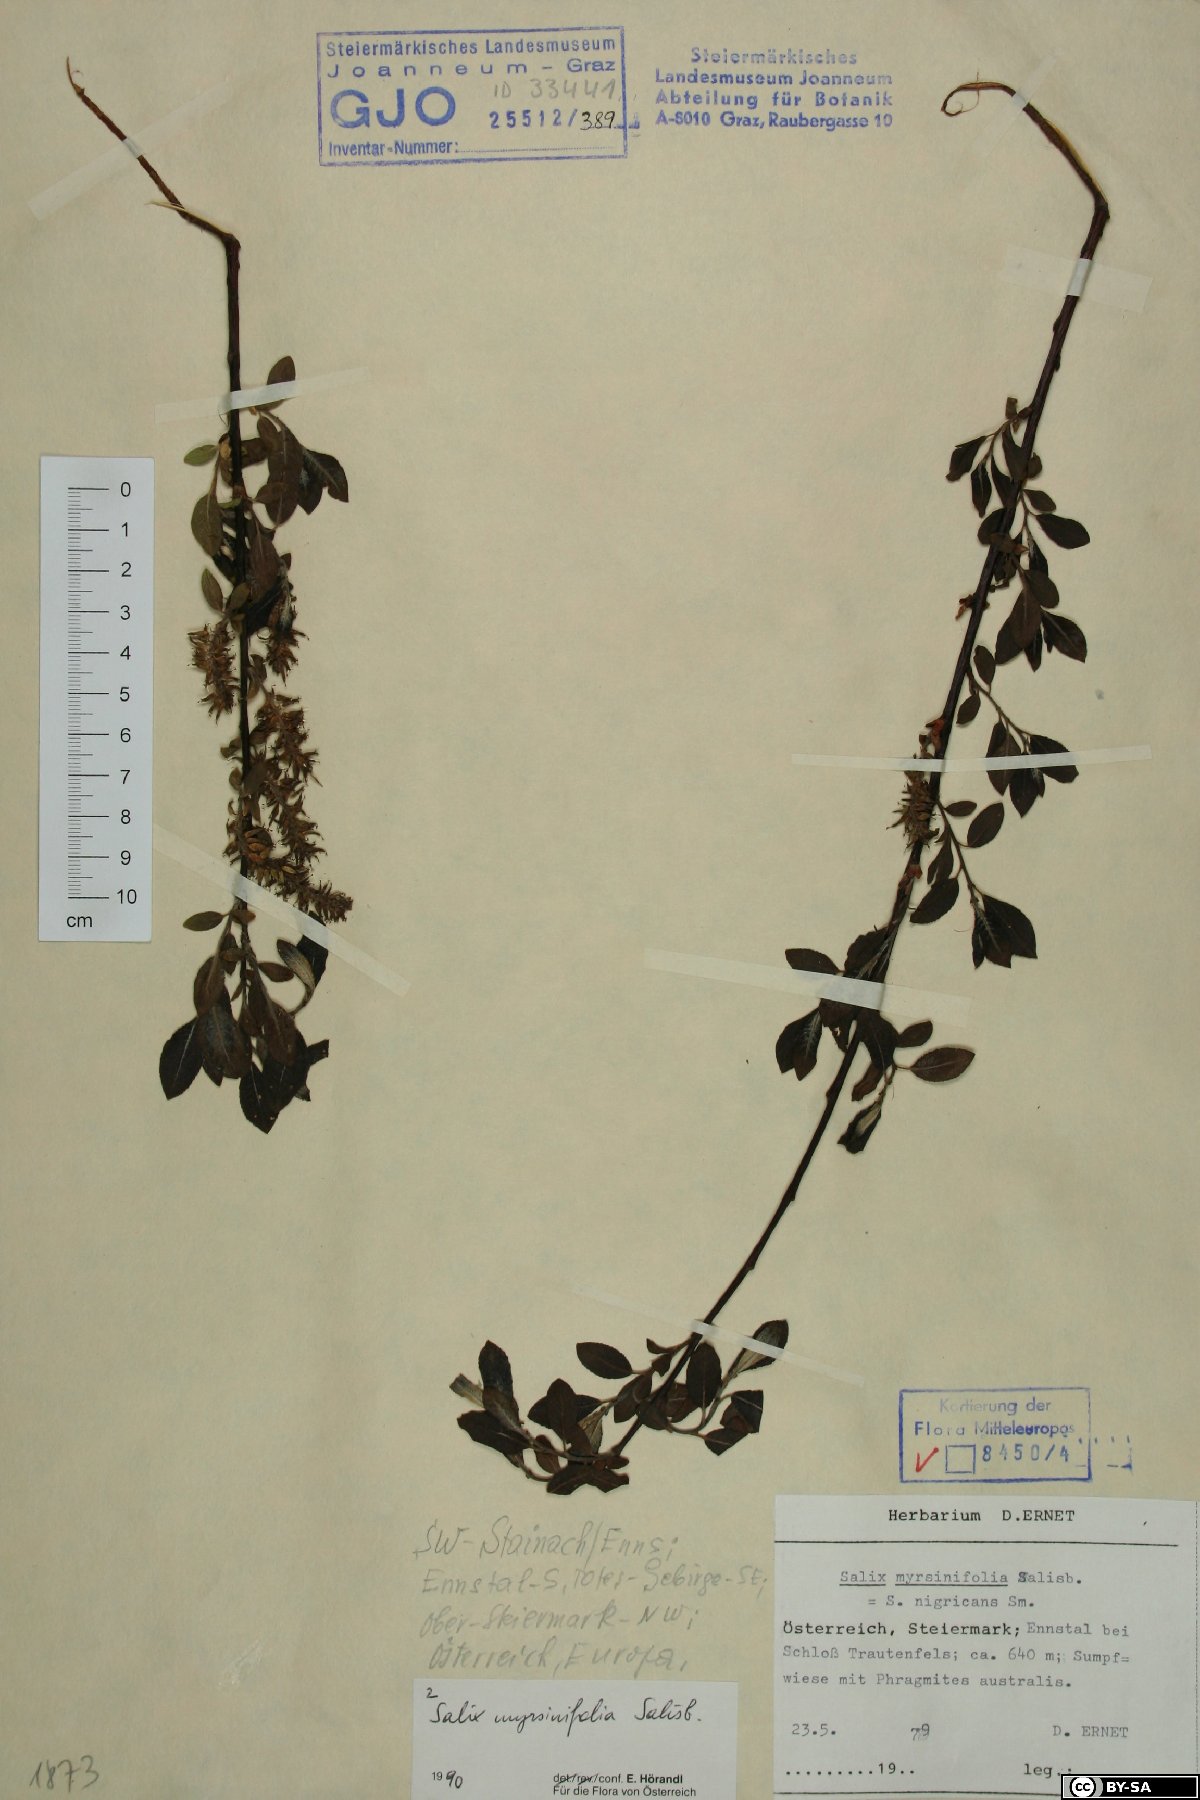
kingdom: Plantae
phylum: Tracheophyta
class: Magnoliopsida
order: Malpighiales
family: Salicaceae
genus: Salix
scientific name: Salix myrsinifolia
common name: Dark-leaved willow
